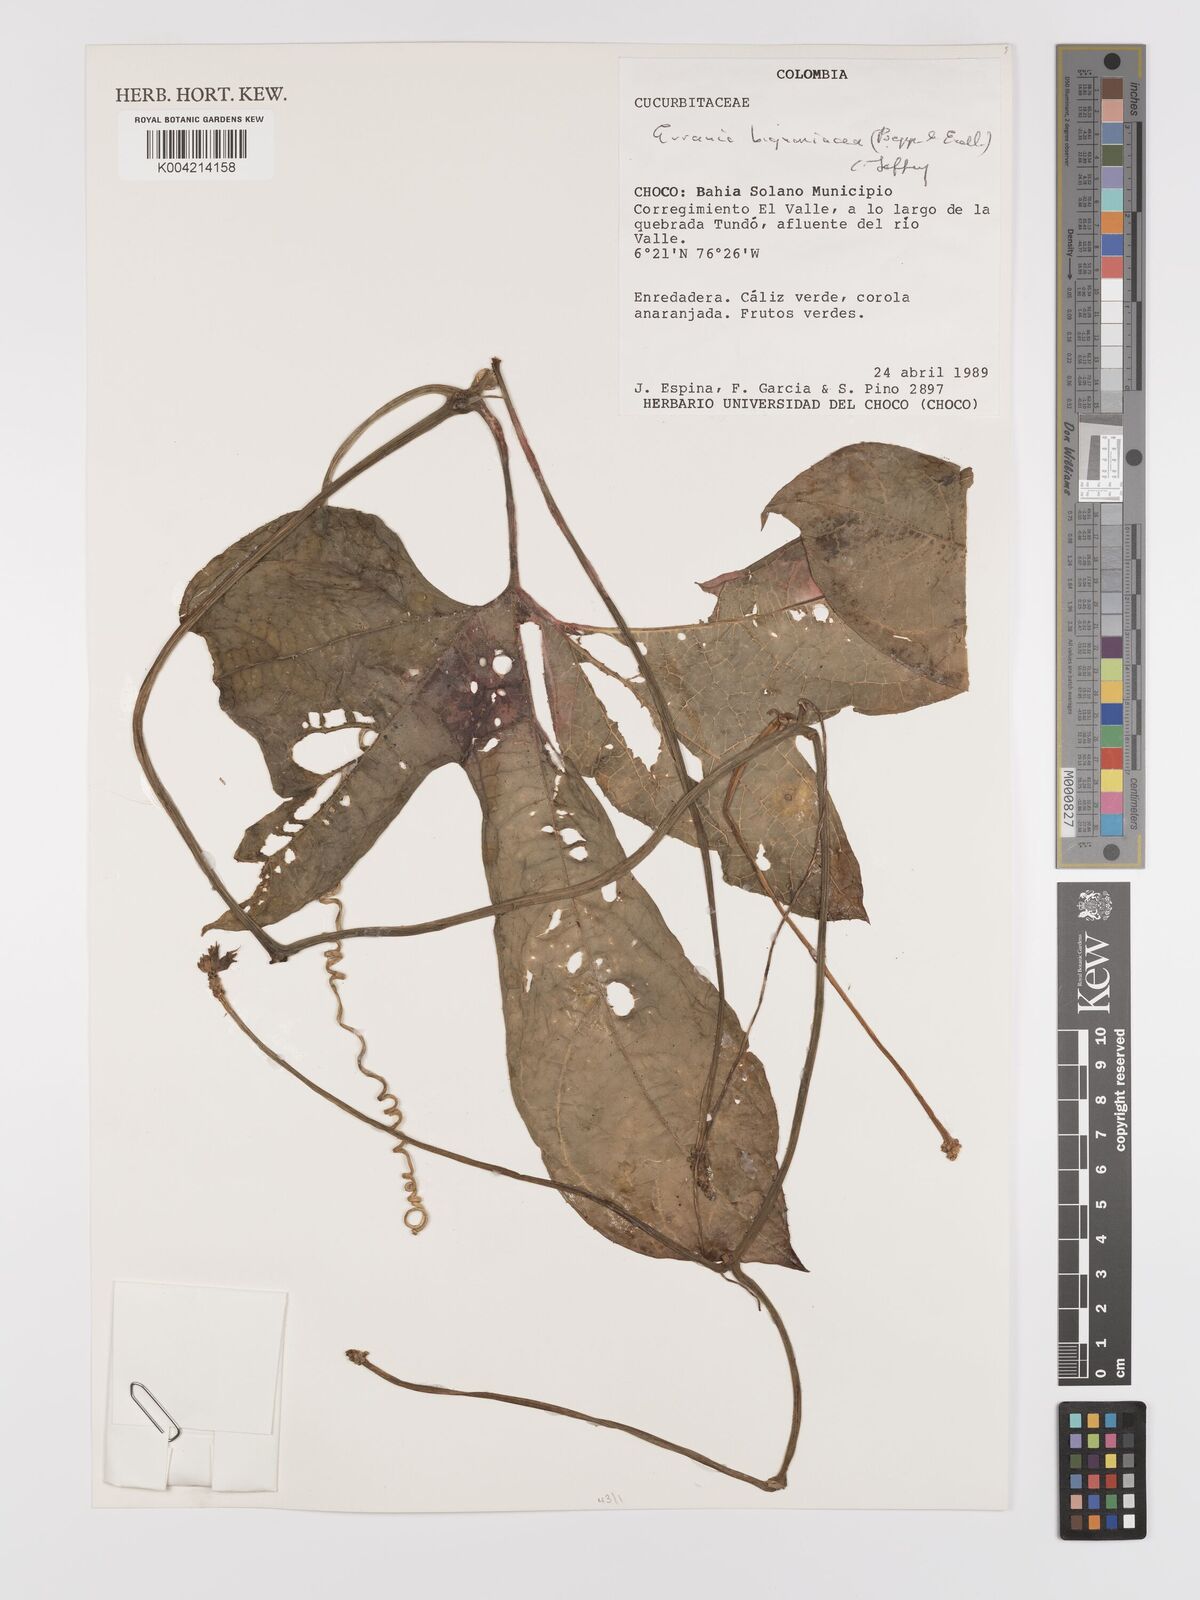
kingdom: Plantae
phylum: Tracheophyta
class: Magnoliopsida
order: Cucurbitales
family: Cucurbitaceae
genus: Gurania
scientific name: Gurania bignoniacea
